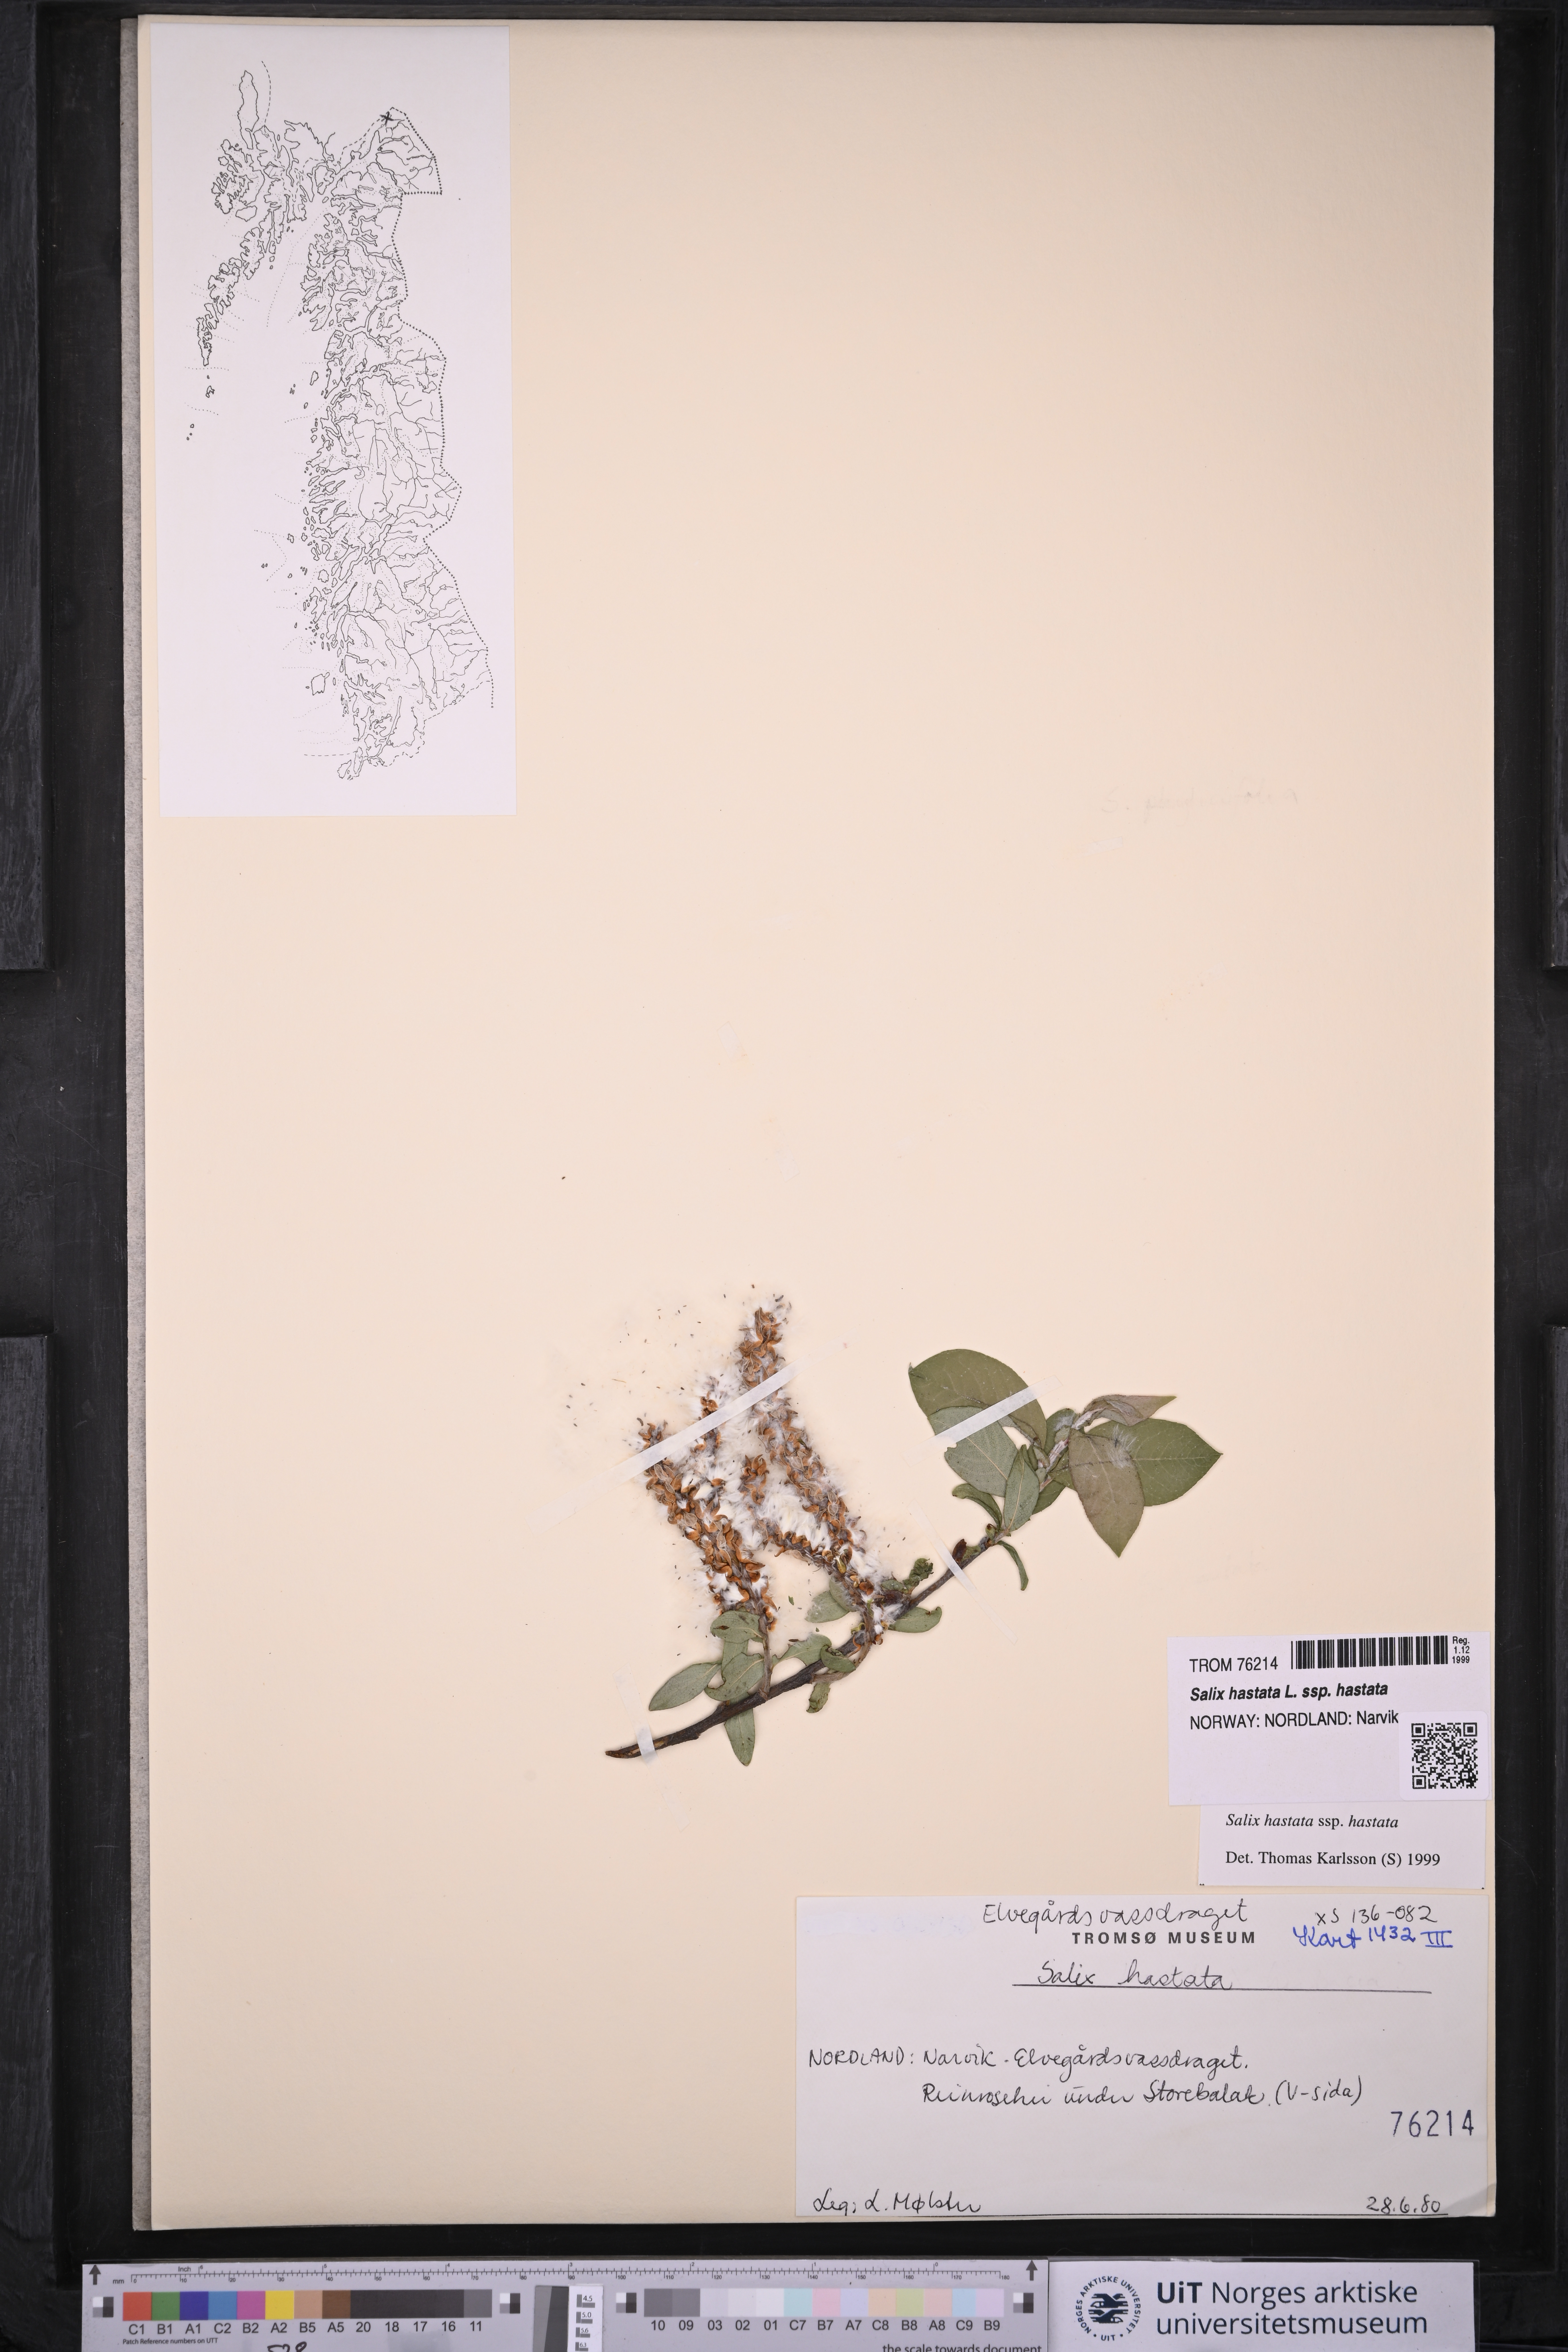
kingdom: Plantae
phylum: Tracheophyta
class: Magnoliopsida
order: Malpighiales
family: Salicaceae
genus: Salix
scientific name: Salix hastata
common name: Halberd willow
